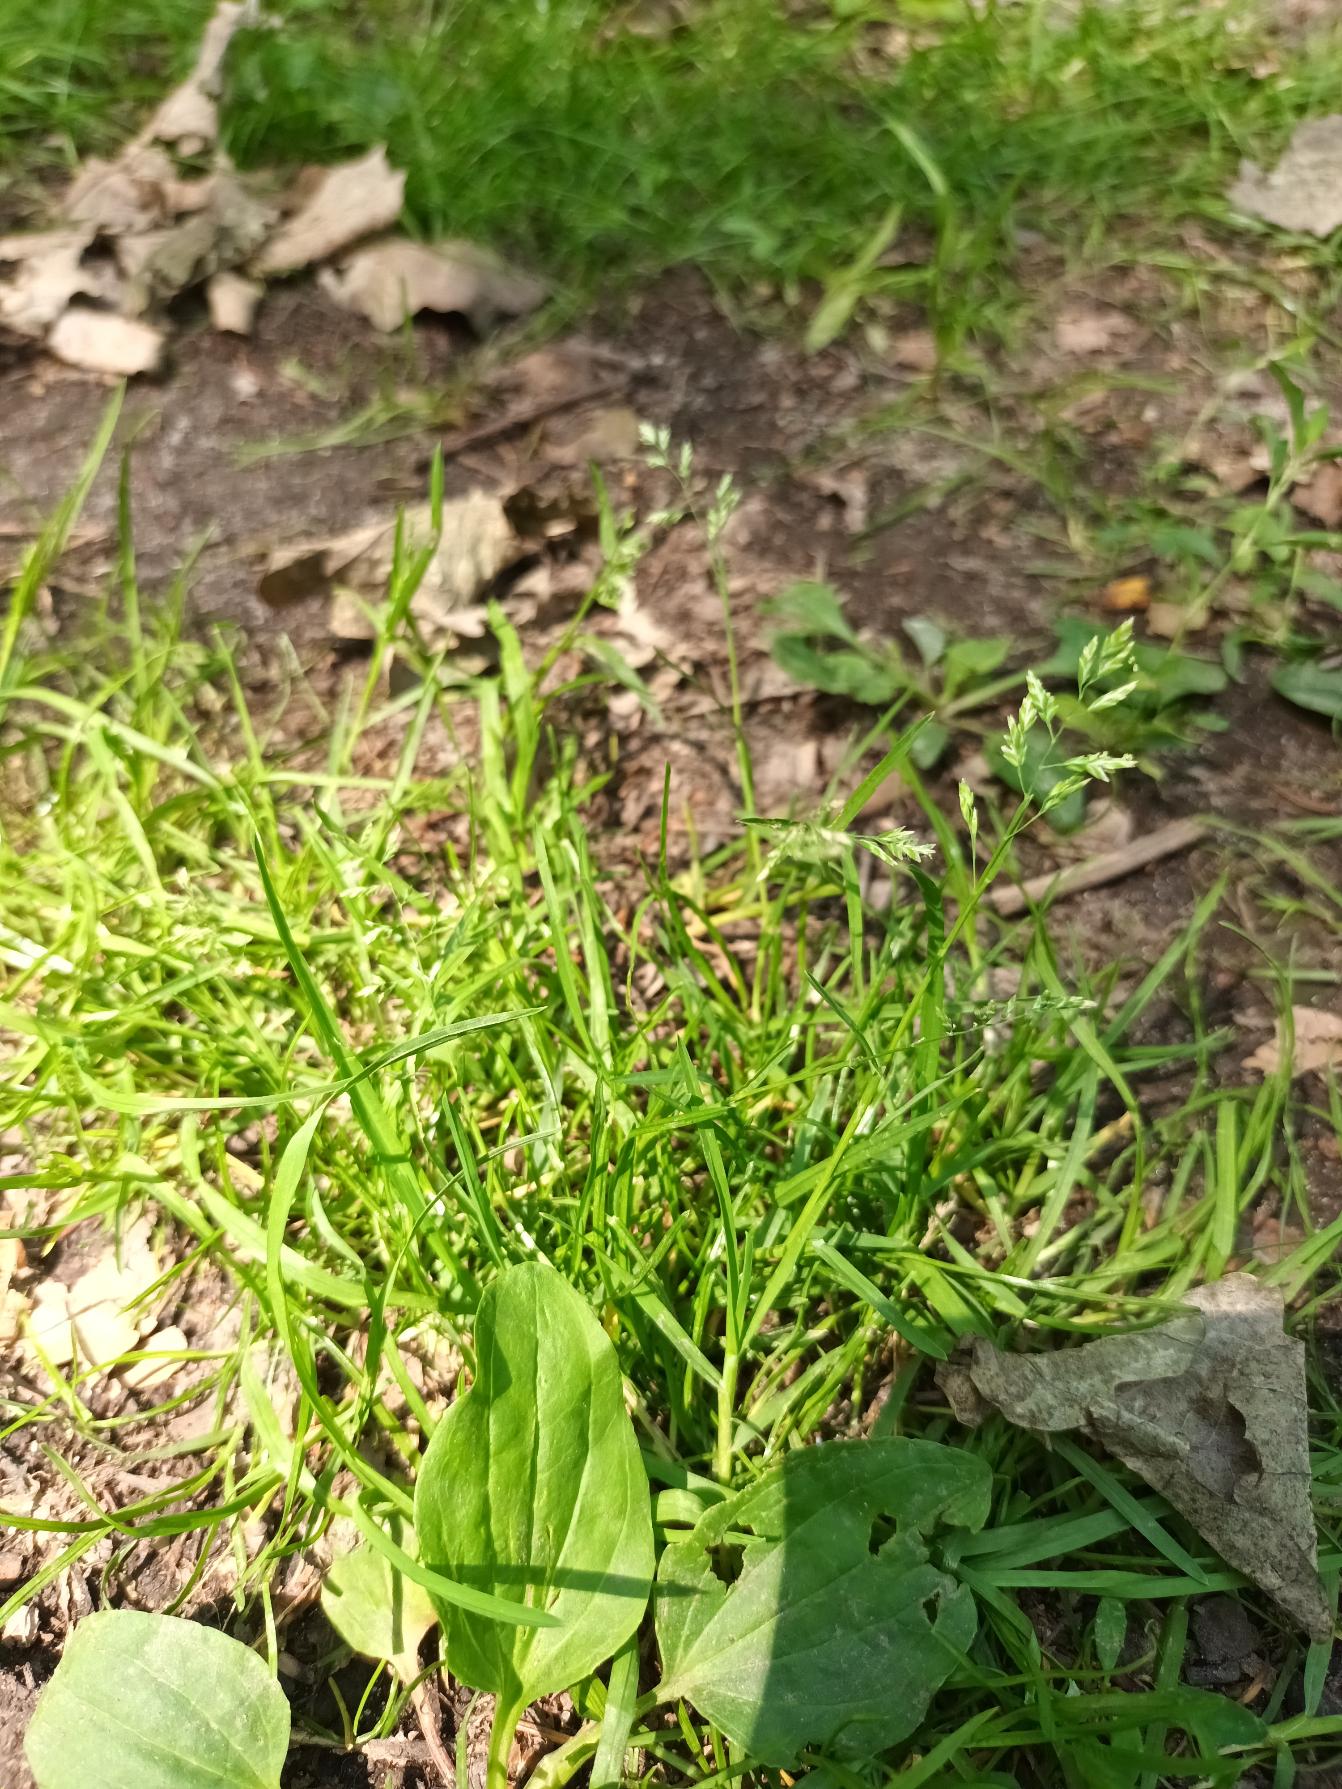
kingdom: Plantae
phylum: Tracheophyta
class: Liliopsida
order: Poales
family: Poaceae
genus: Poa
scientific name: Poa annua
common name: Enårig rapgræs
